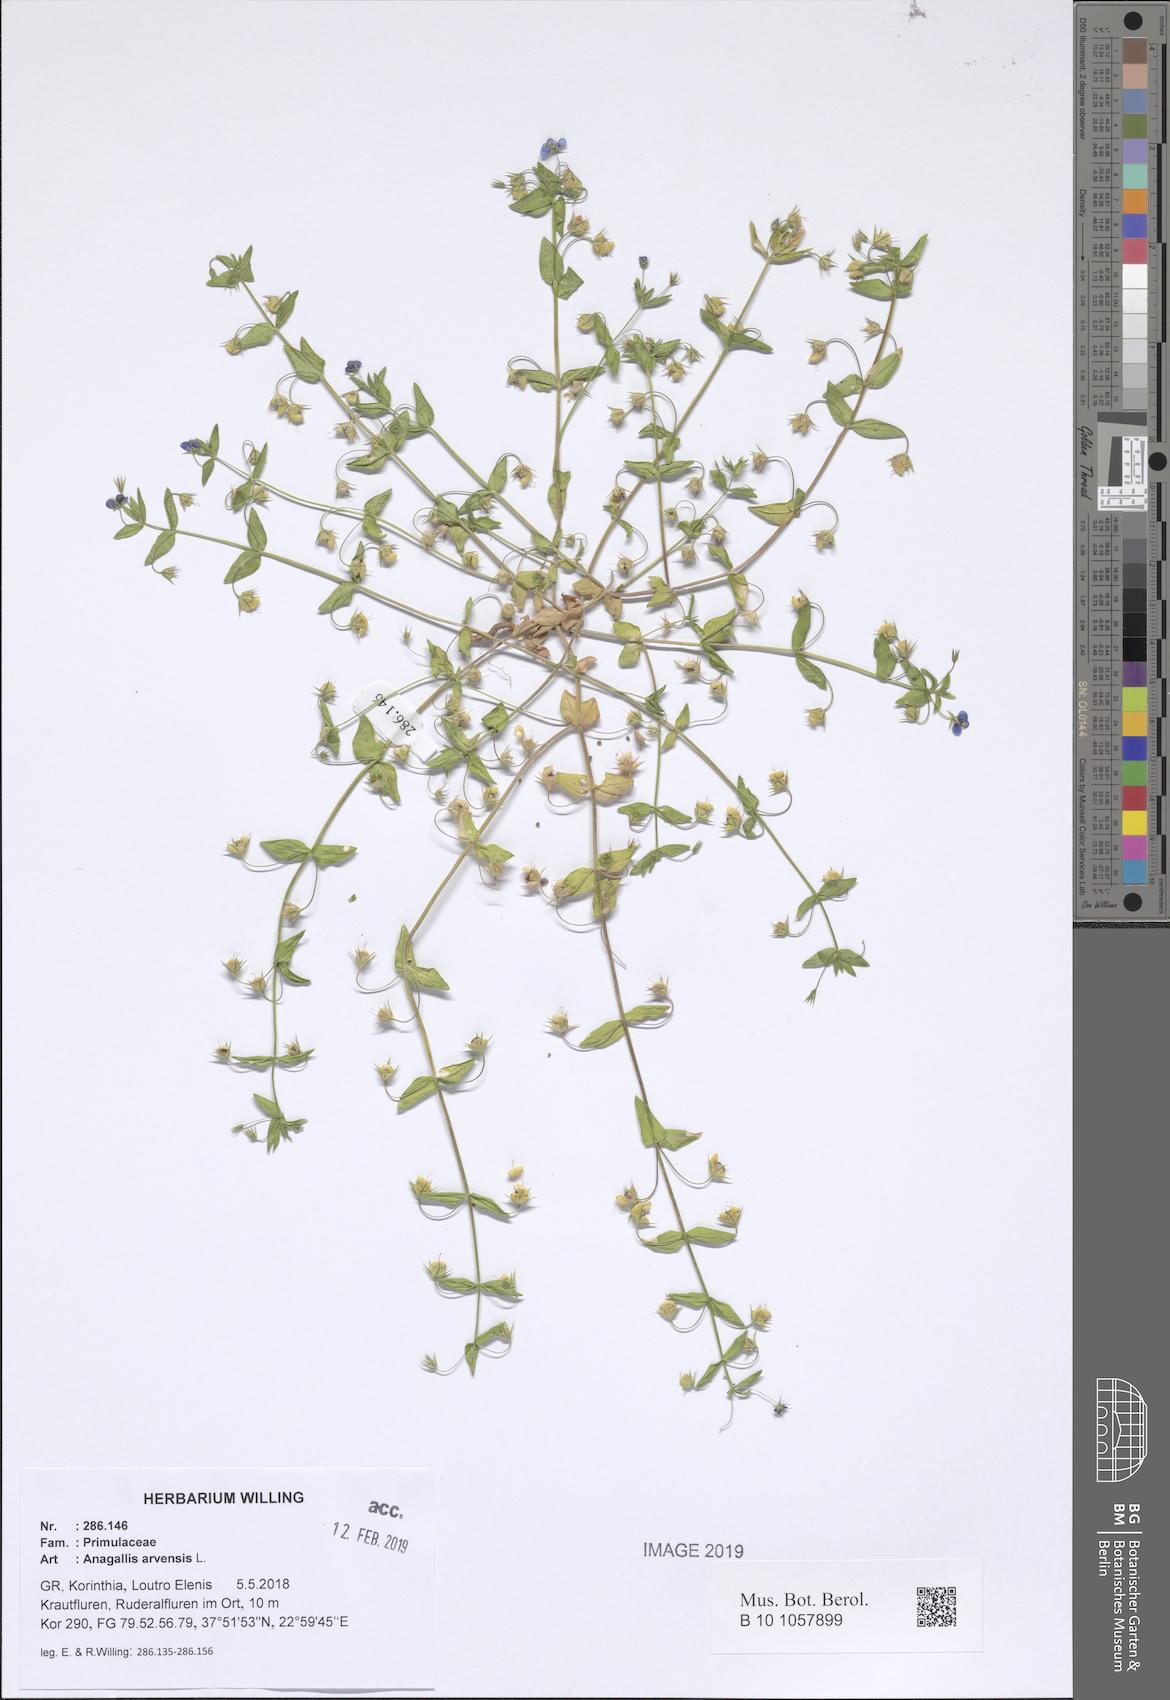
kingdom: Plantae
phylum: Tracheophyta
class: Magnoliopsida
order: Ericales
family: Primulaceae
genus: Lysimachia
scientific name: Lysimachia arvensis
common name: Scarlet pimpernel
